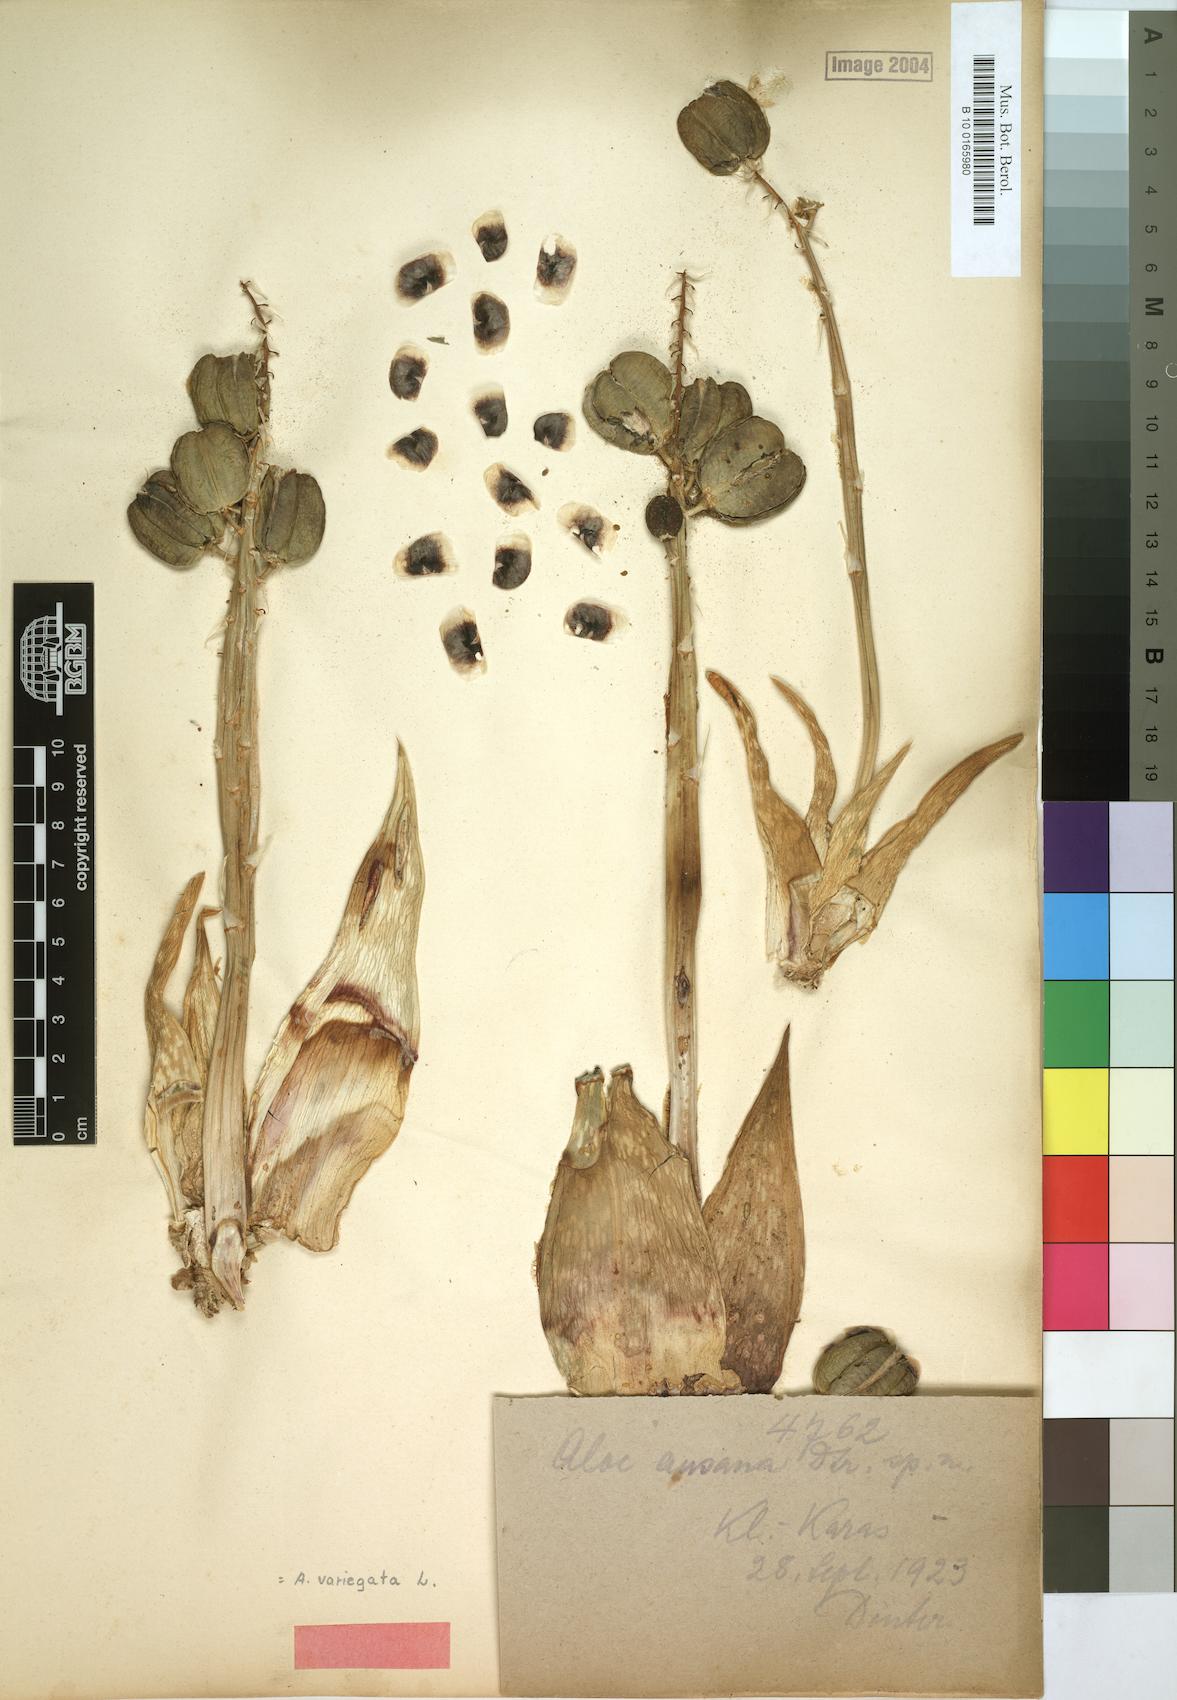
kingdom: Plantae
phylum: Tracheophyta
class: Liliopsida
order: Asparagales
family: Asphodelaceae
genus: Gonialoe
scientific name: Gonialoe variegata
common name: Aloe variegata
